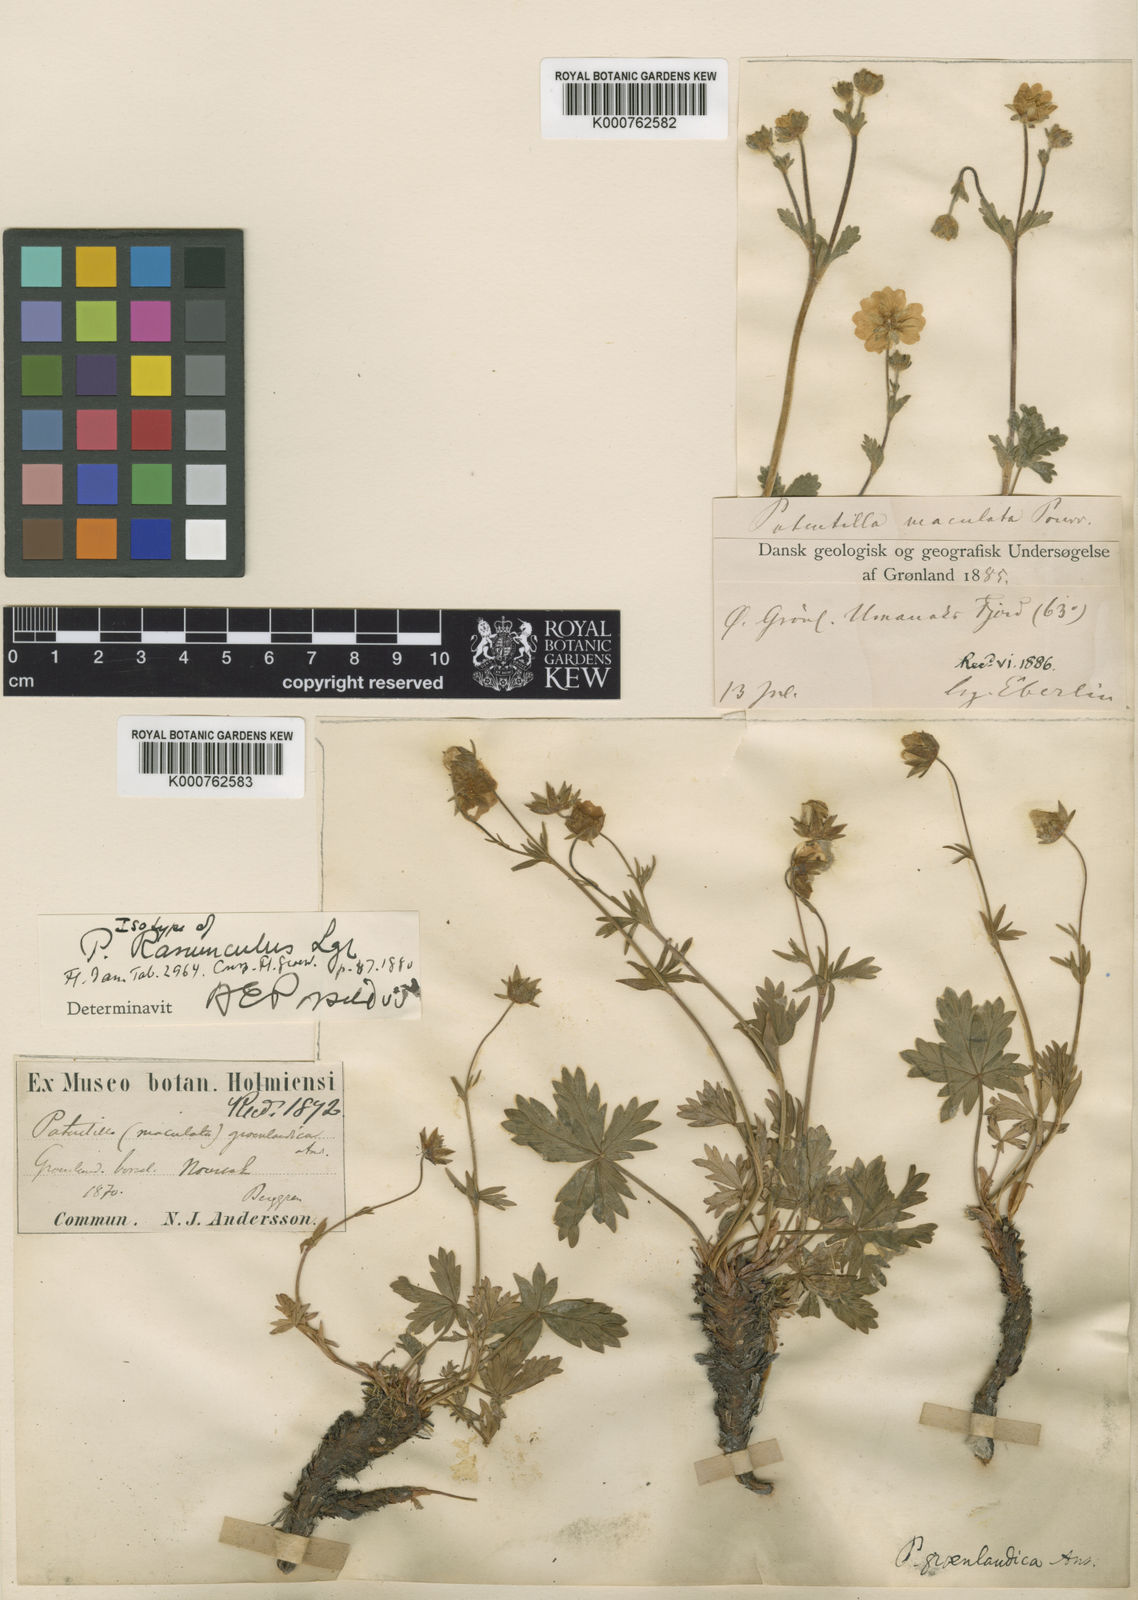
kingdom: Plantae
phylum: Tracheophyta
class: Magnoliopsida
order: Rosales
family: Rosaceae
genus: Potentilla
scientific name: Potentilla glaucophylla
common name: Blue-leaved cinquefoil
